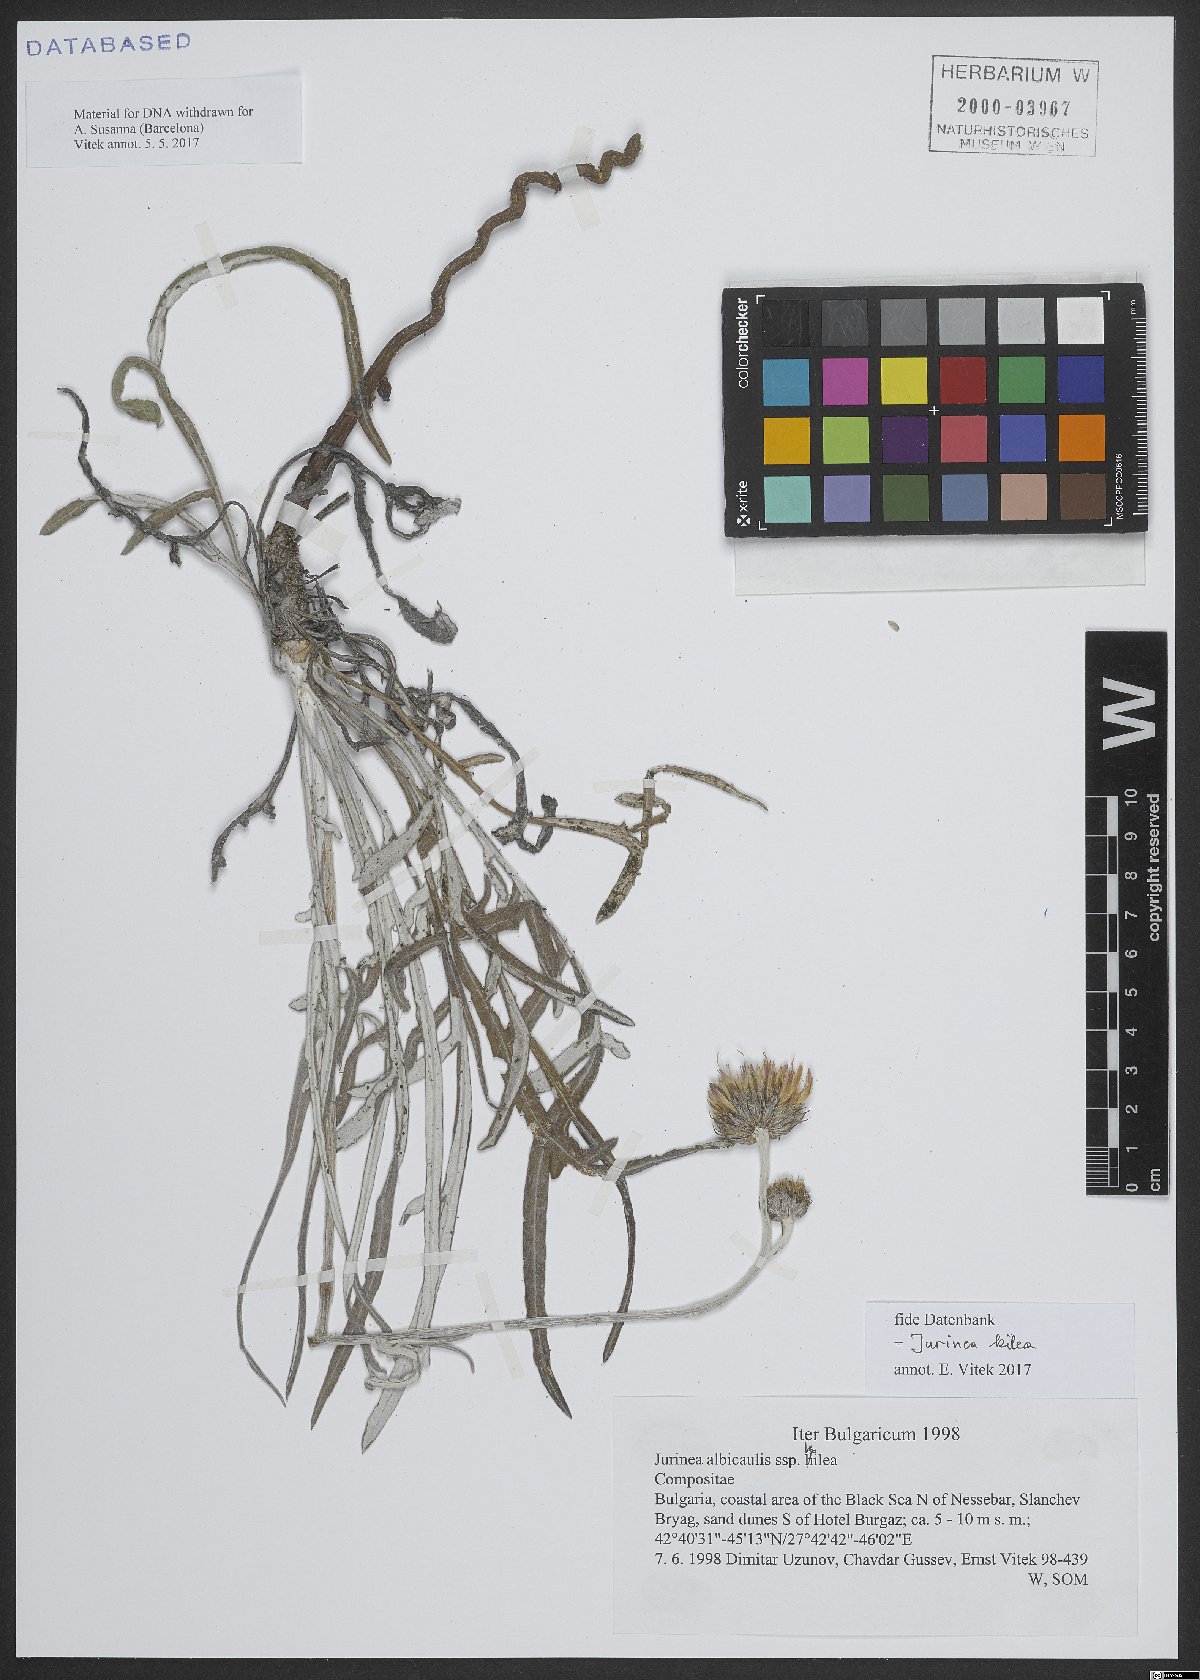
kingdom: Plantae
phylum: Tracheophyta
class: Magnoliopsida
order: Asterales
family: Asteraceae
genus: Jurinea
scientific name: Jurinea albicaulis
